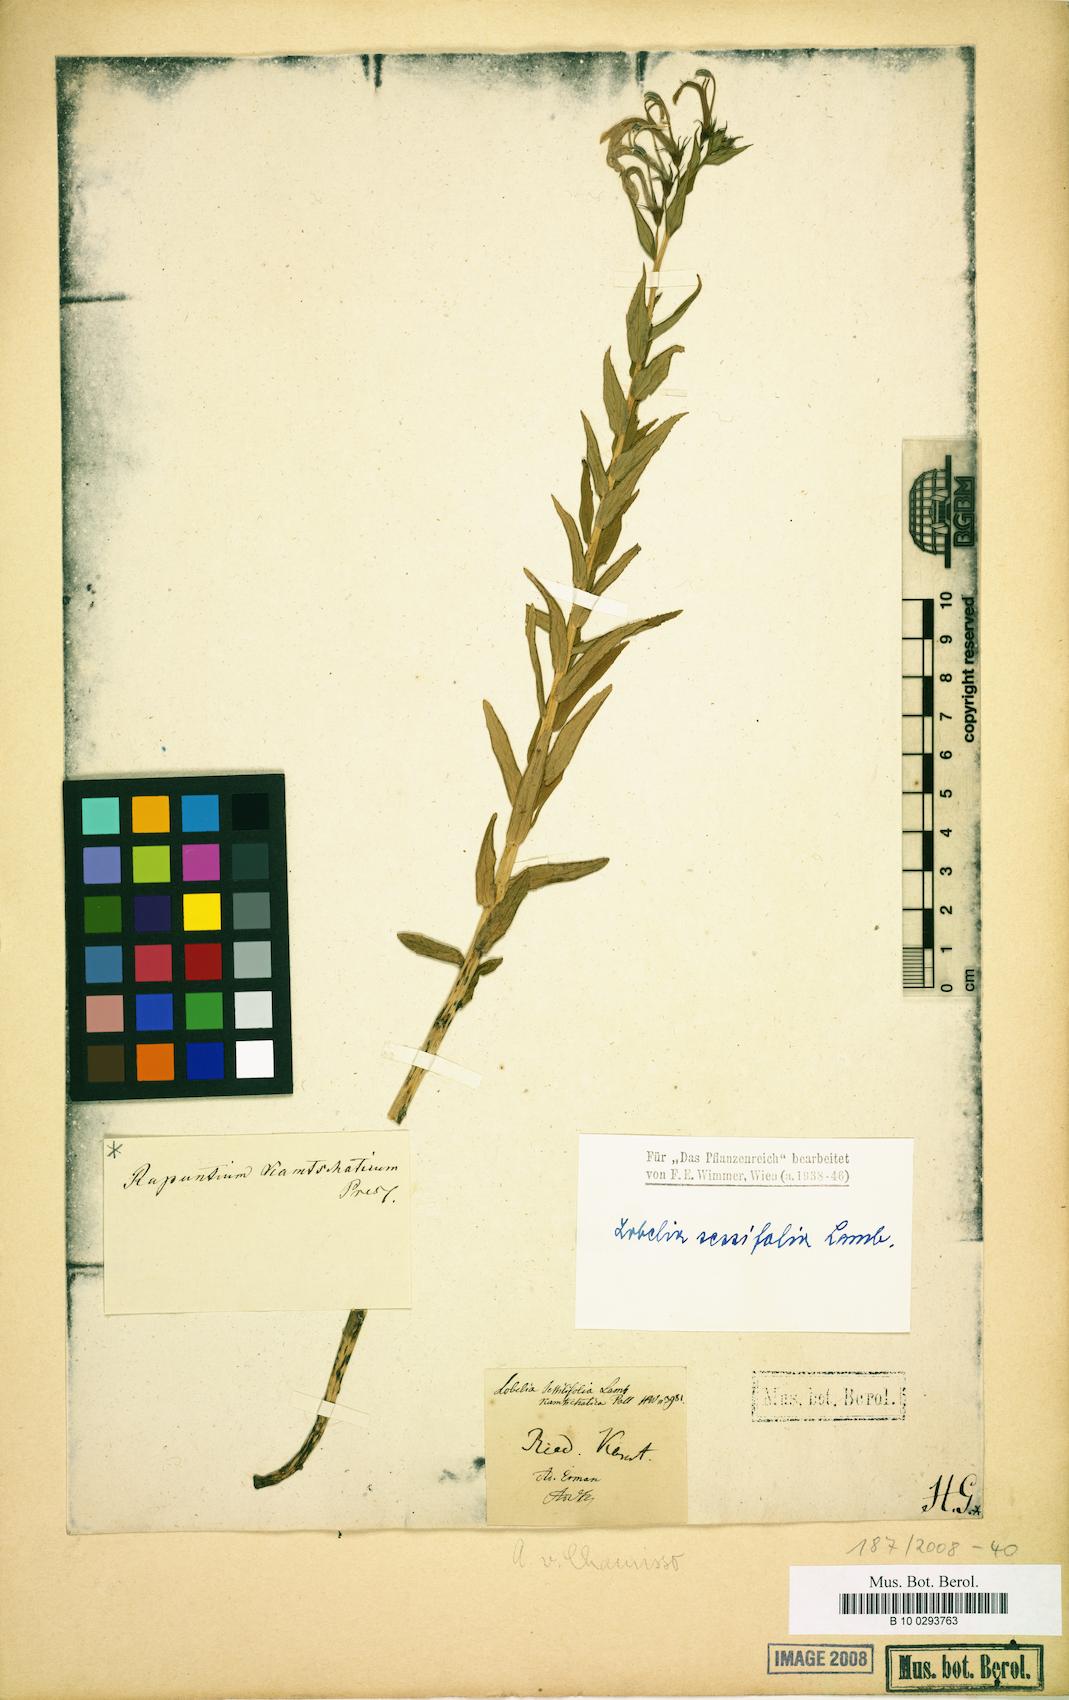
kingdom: Plantae
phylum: Tracheophyta
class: Magnoliopsida
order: Asterales
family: Campanulaceae
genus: Lobelia
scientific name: Lobelia sessilifolia
